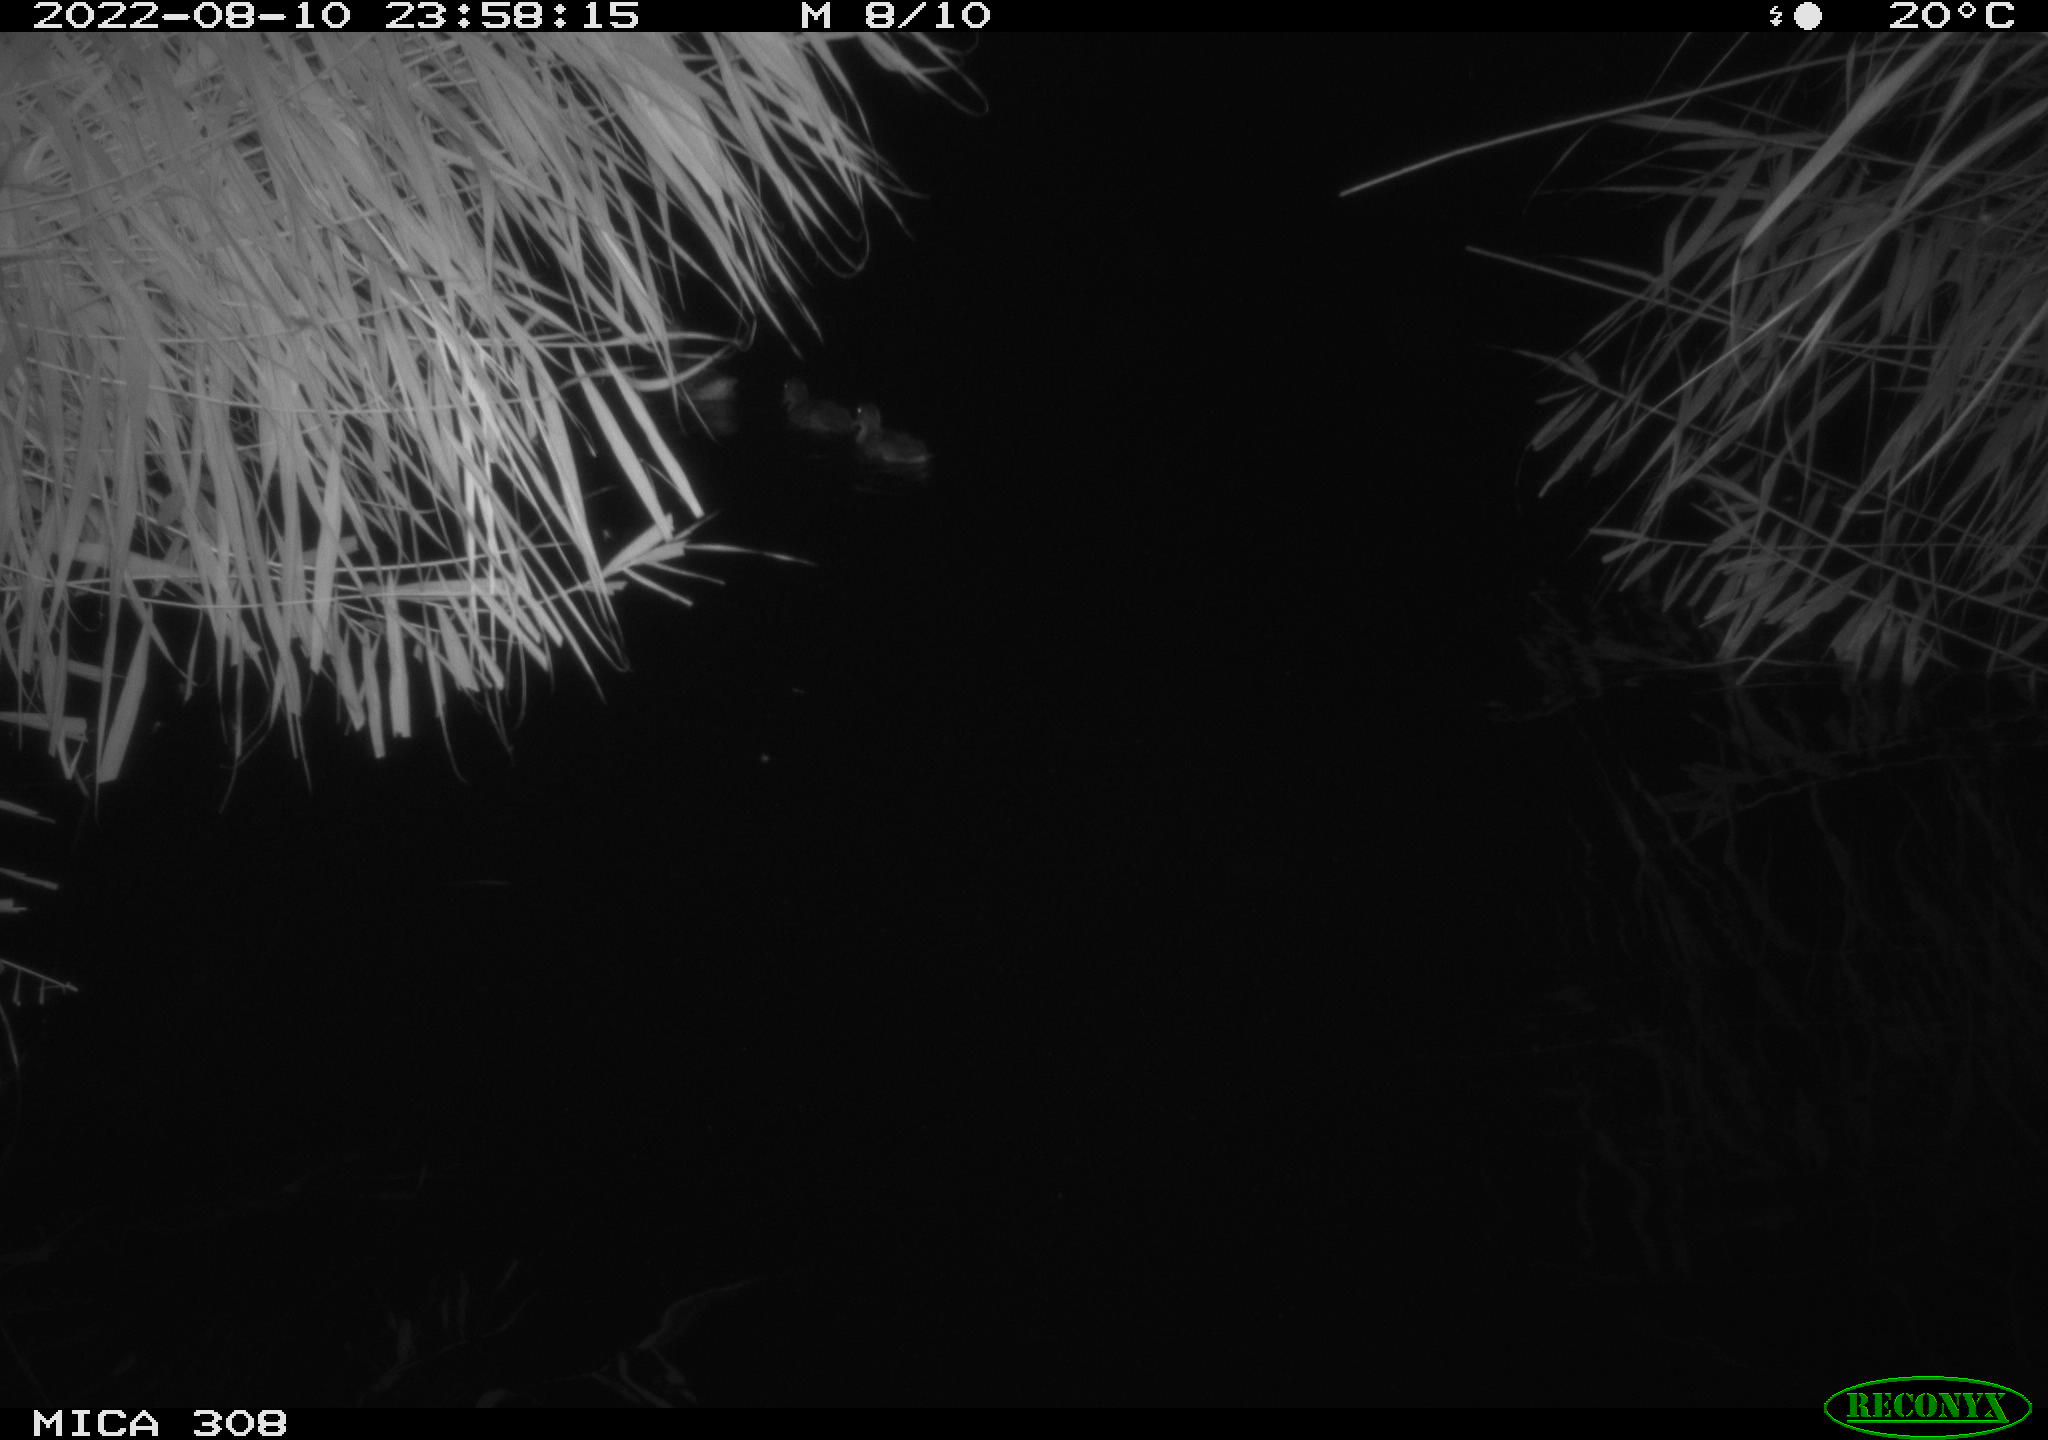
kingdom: Animalia
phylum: Chordata
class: Aves
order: Anseriformes
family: Anatidae
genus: Anas
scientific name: Anas platyrhynchos
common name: Mallard
